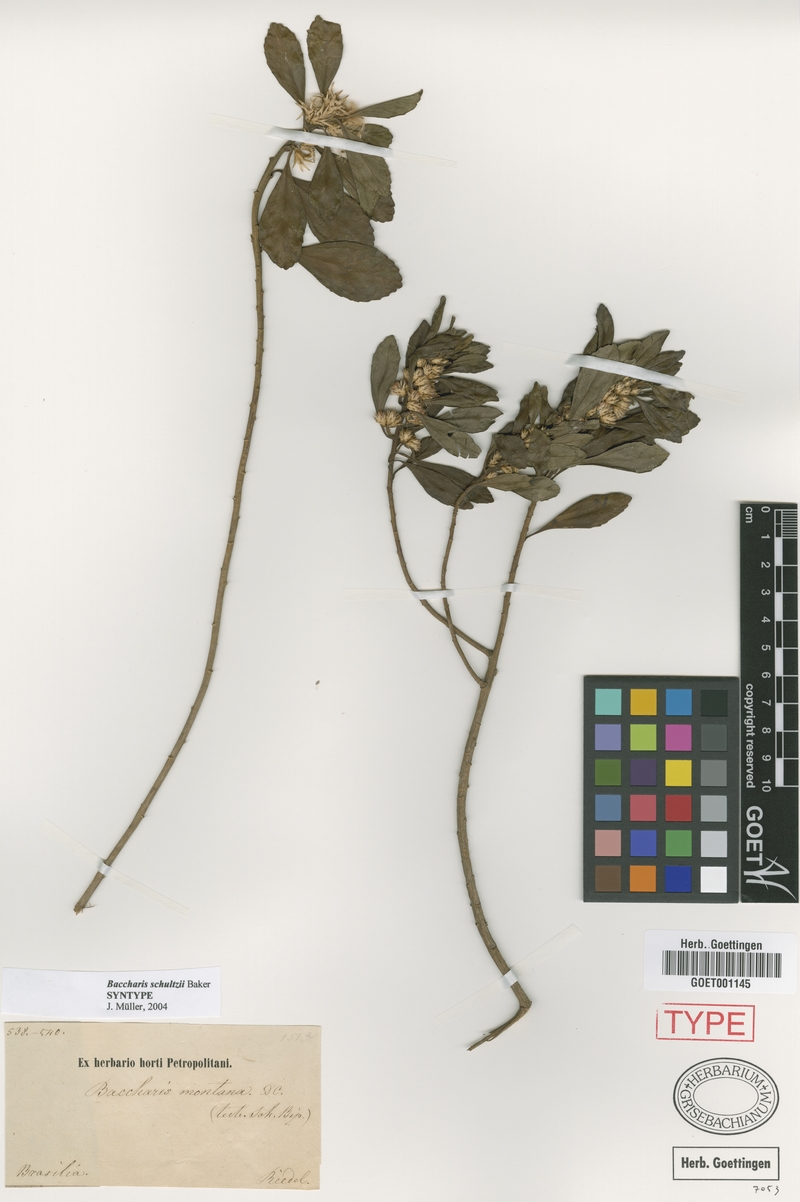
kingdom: Plantae
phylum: Tracheophyta
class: Magnoliopsida
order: Asterales
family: Asteraceae
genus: Baccharis
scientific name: Baccharis lateralis
